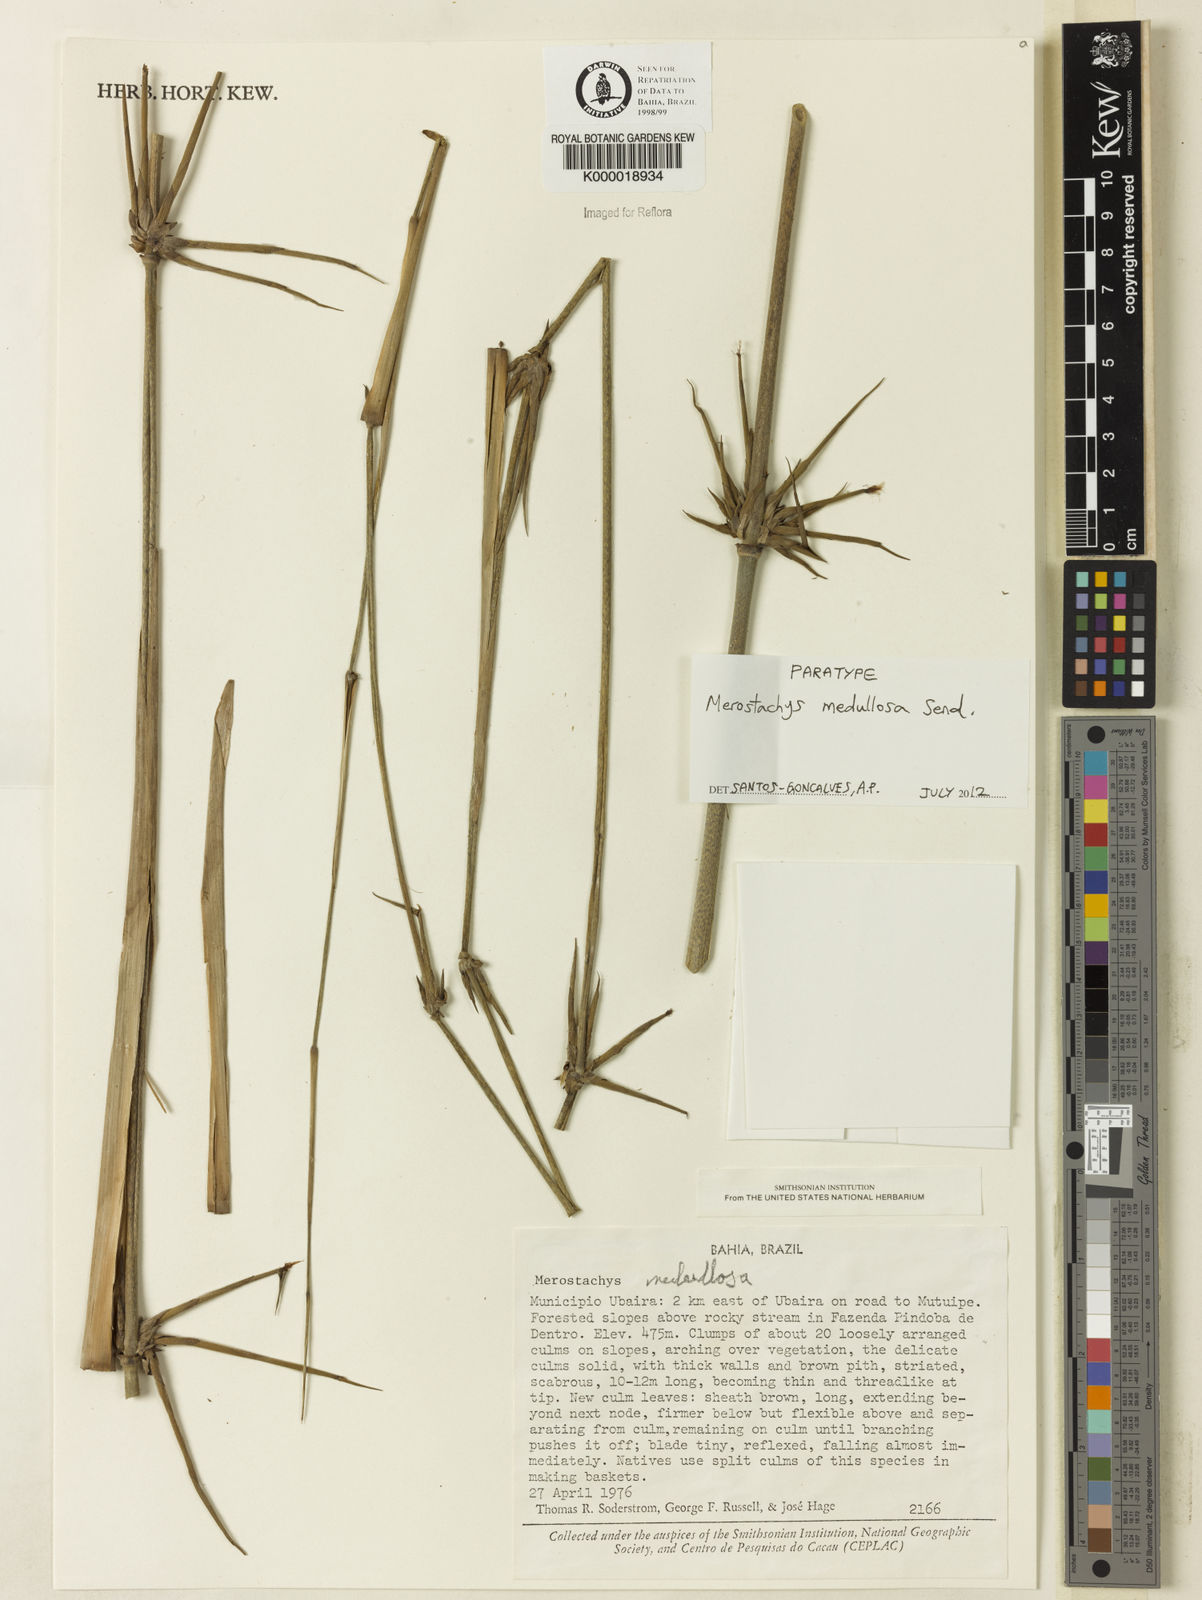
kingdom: Plantae
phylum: Tracheophyta
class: Liliopsida
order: Poales
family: Poaceae
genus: Merostachys
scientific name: Merostachys medullosa
